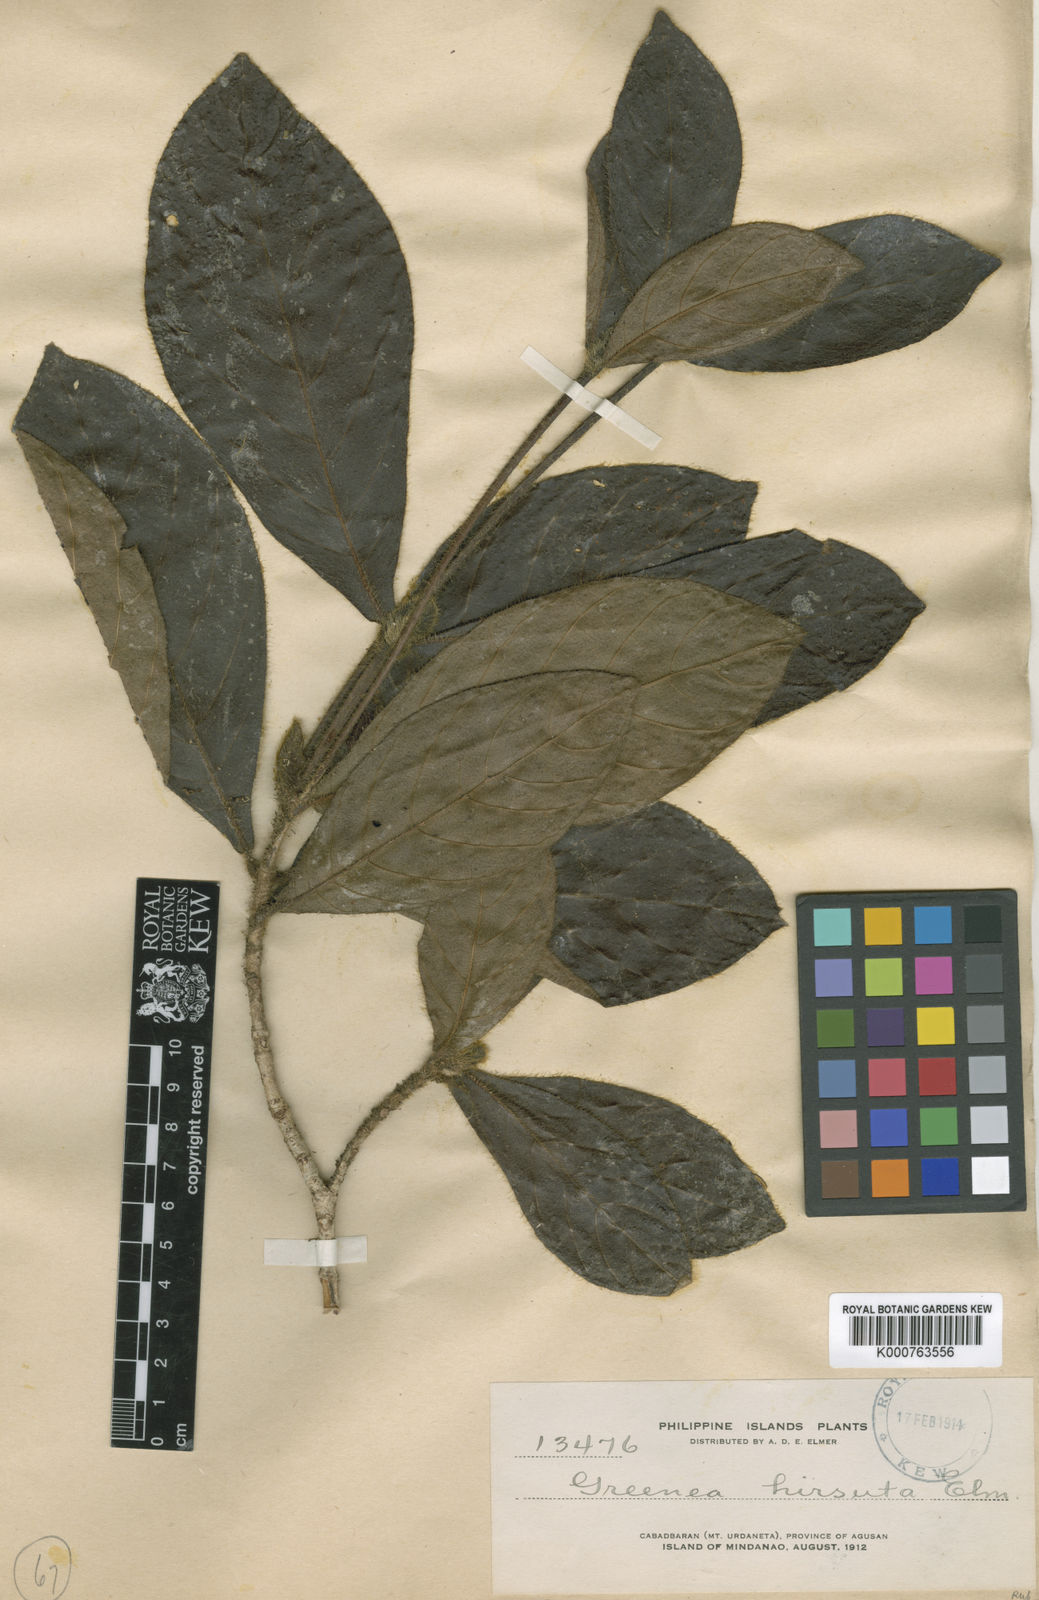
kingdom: Plantae
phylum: Tracheophyta
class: Magnoliopsida
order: Gentianales
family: Rubiaceae
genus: Timonius
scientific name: Timonius hirsutus
